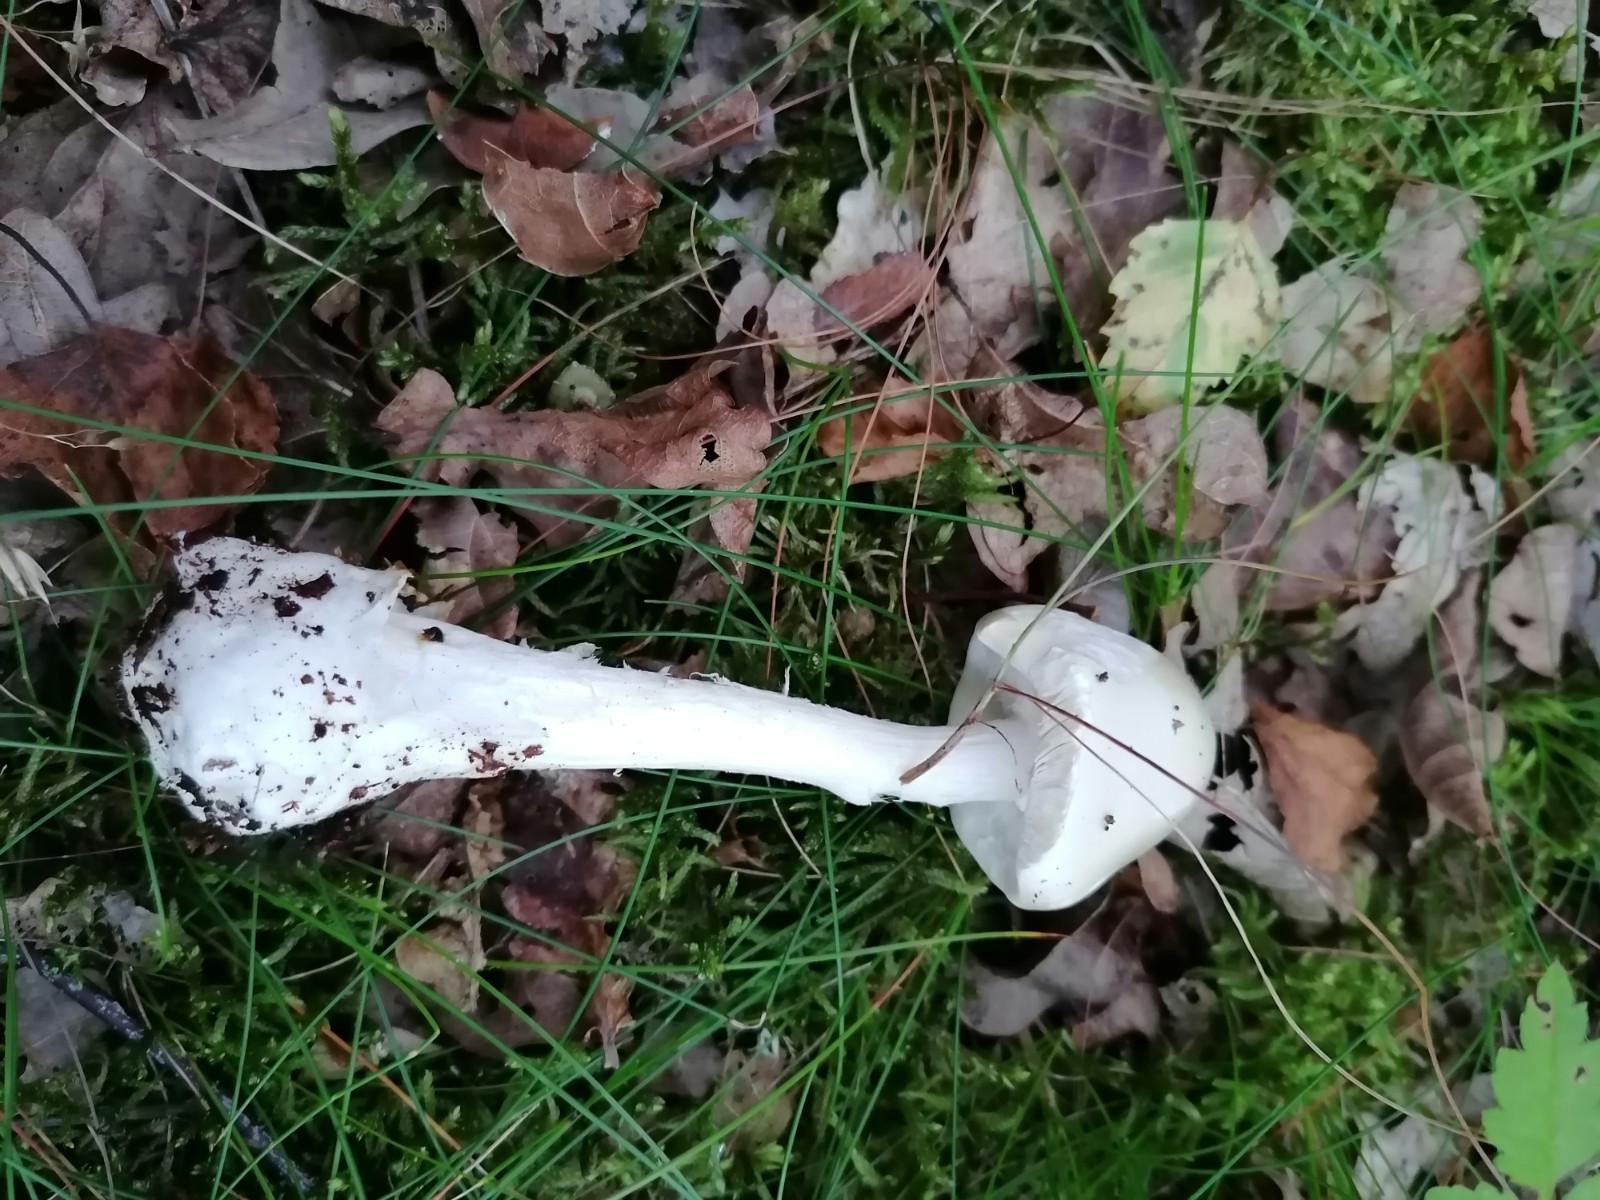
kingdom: Fungi
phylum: Basidiomycota
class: Agaricomycetes
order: Agaricales
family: Amanitaceae
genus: Amanita
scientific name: Amanita virosa
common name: snehvid fluesvamp
